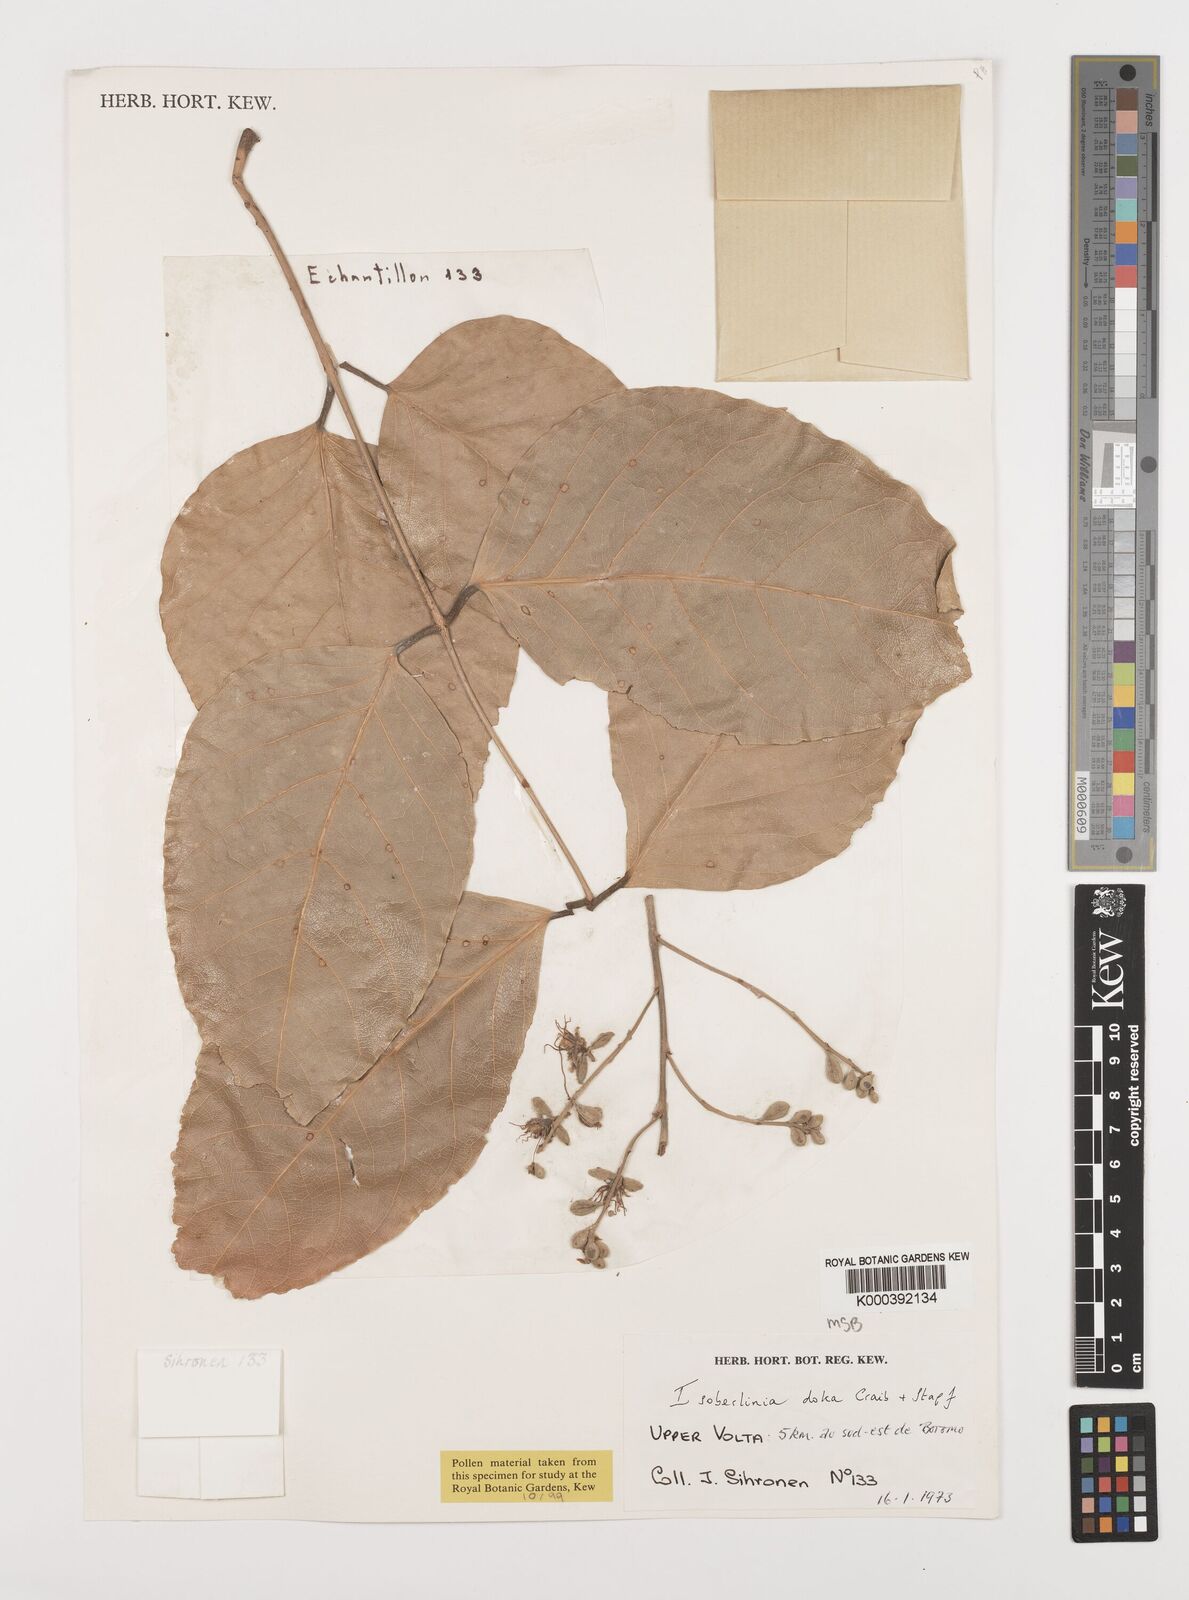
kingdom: Plantae
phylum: Tracheophyta
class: Magnoliopsida
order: Fabales
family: Fabaceae
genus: Isoberlinia
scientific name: Isoberlinia doka
